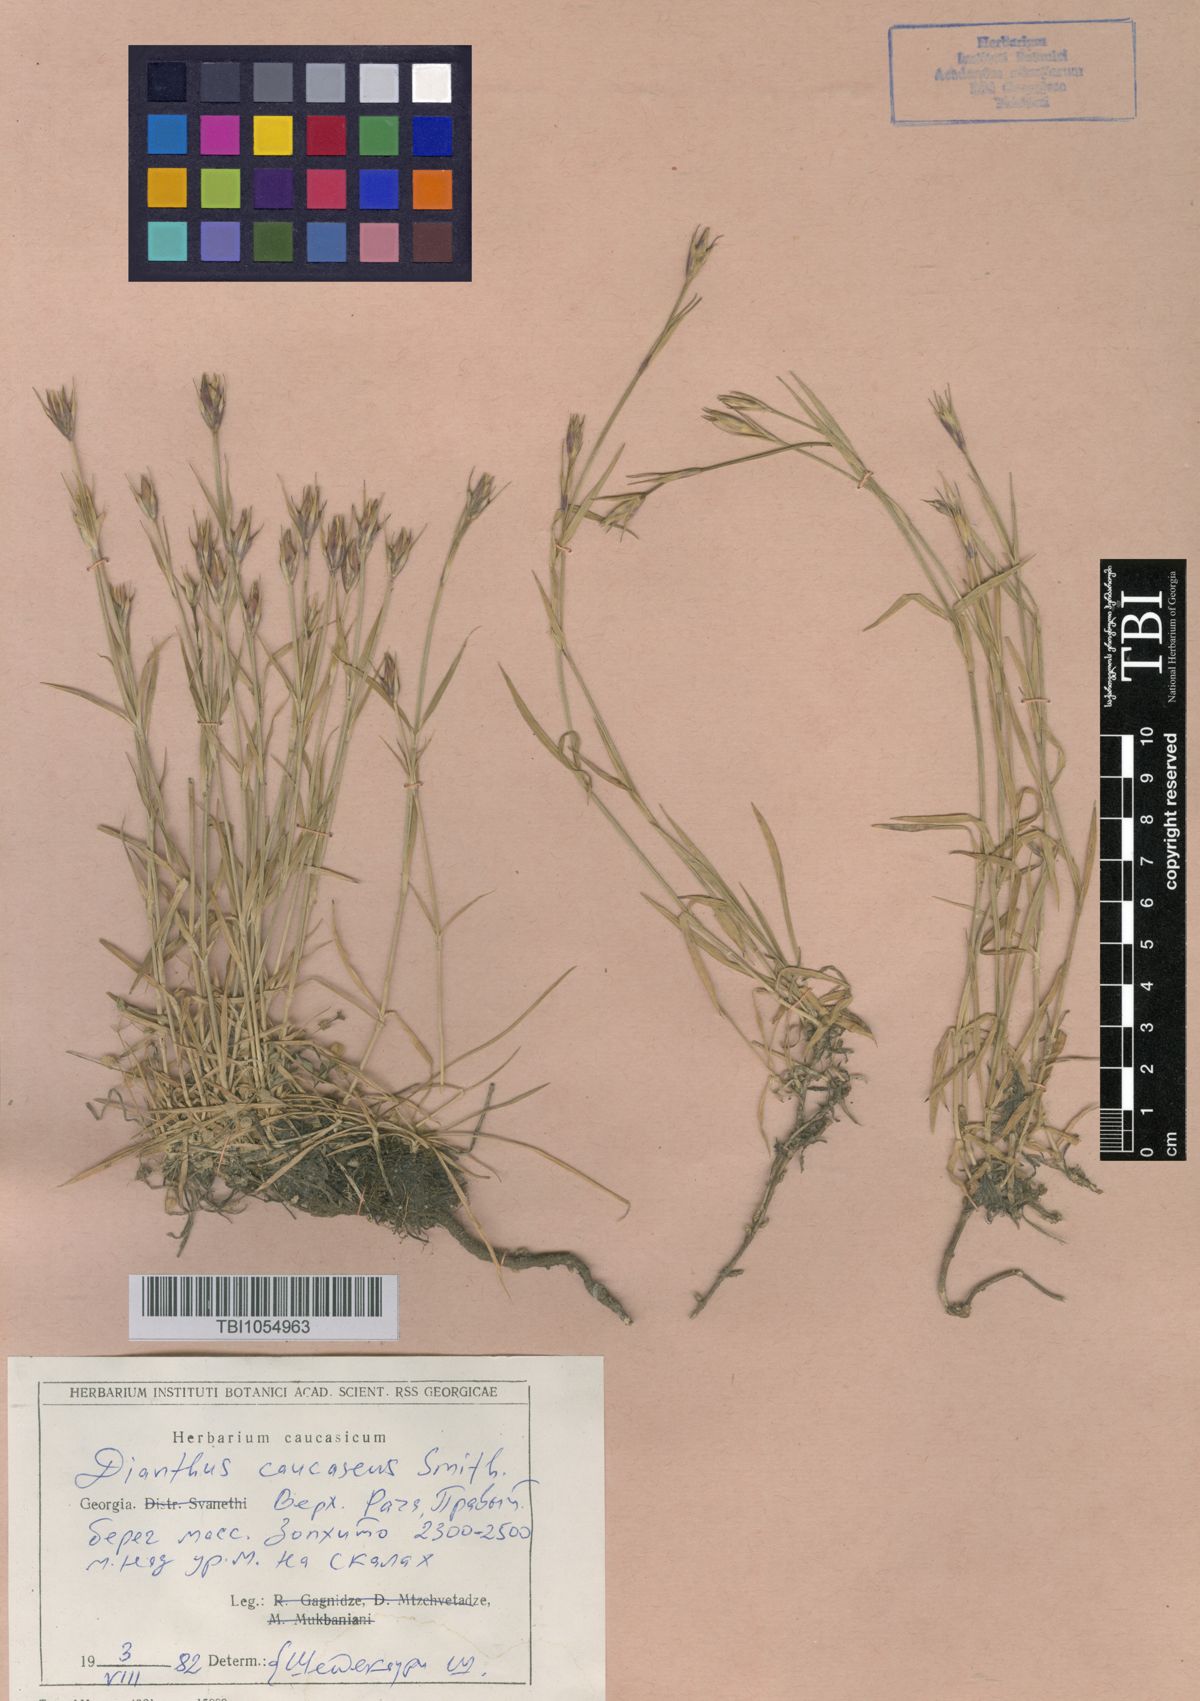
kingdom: Plantae
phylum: Tracheophyta
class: Magnoliopsida
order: Caryophyllales
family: Caryophyllaceae
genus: Dianthus
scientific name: Dianthus caucaseus
